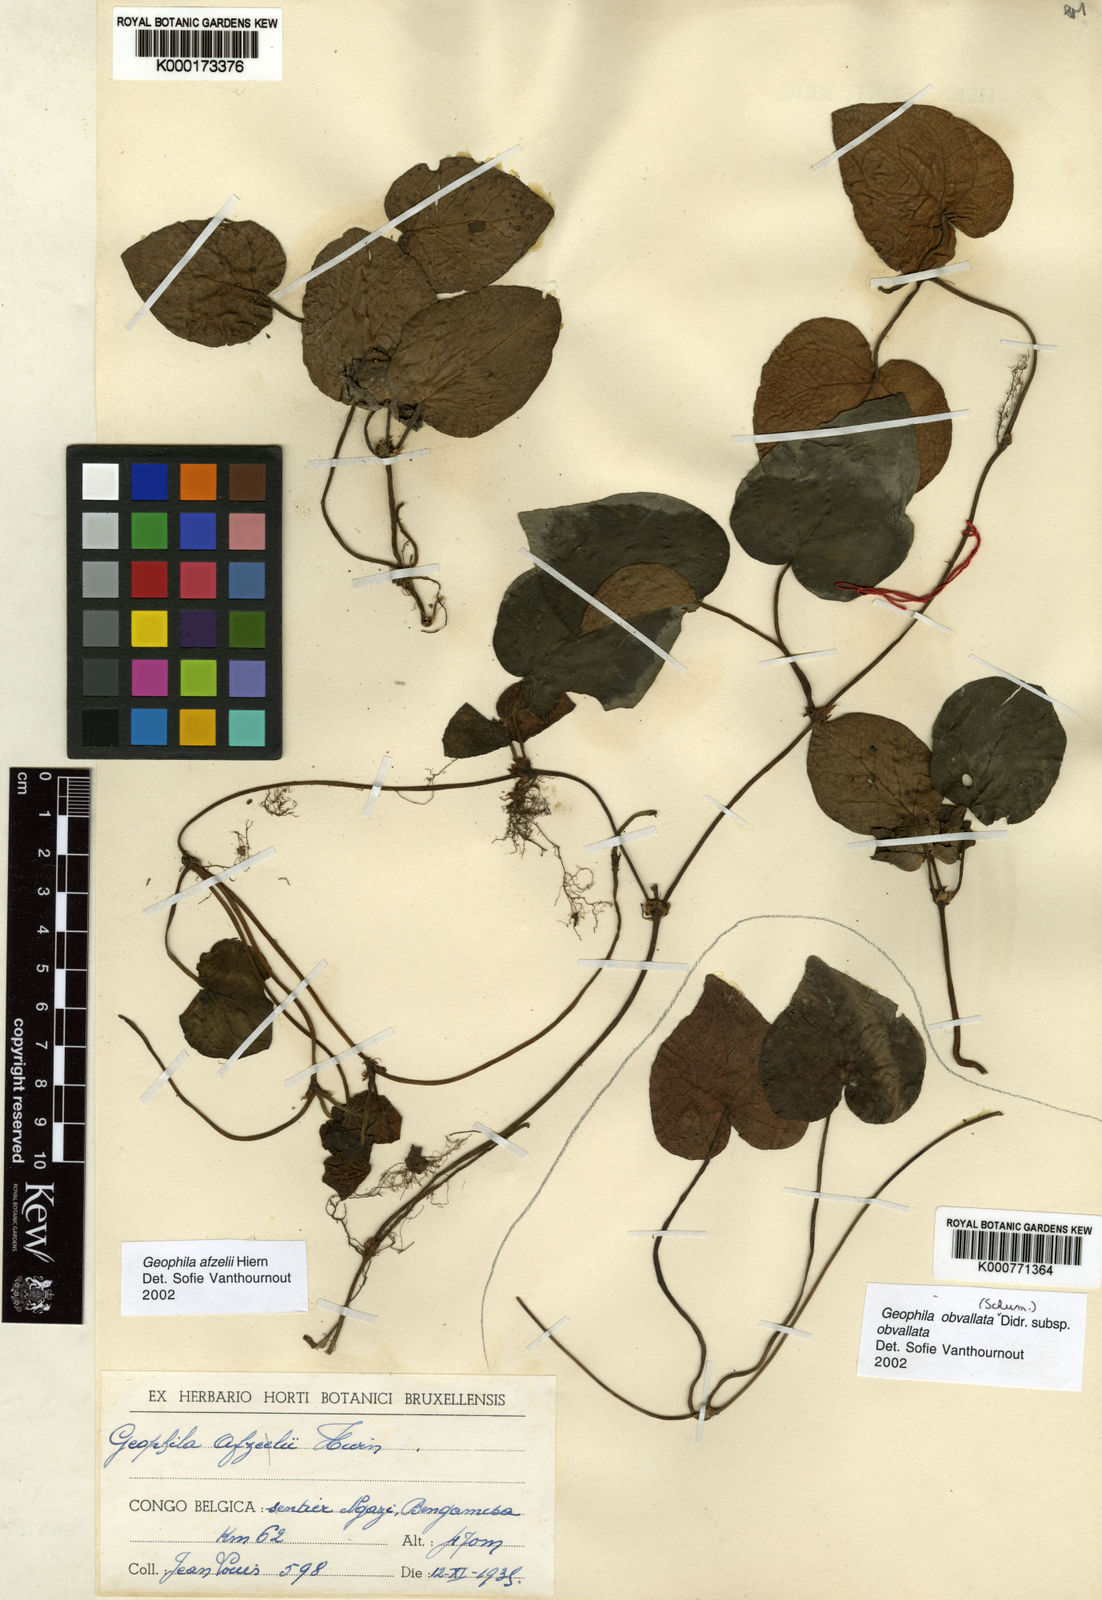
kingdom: Plantae
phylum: Tracheophyta
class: Magnoliopsida
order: Gentianales
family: Rubiaceae
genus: Geophila
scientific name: Geophila afzelii
